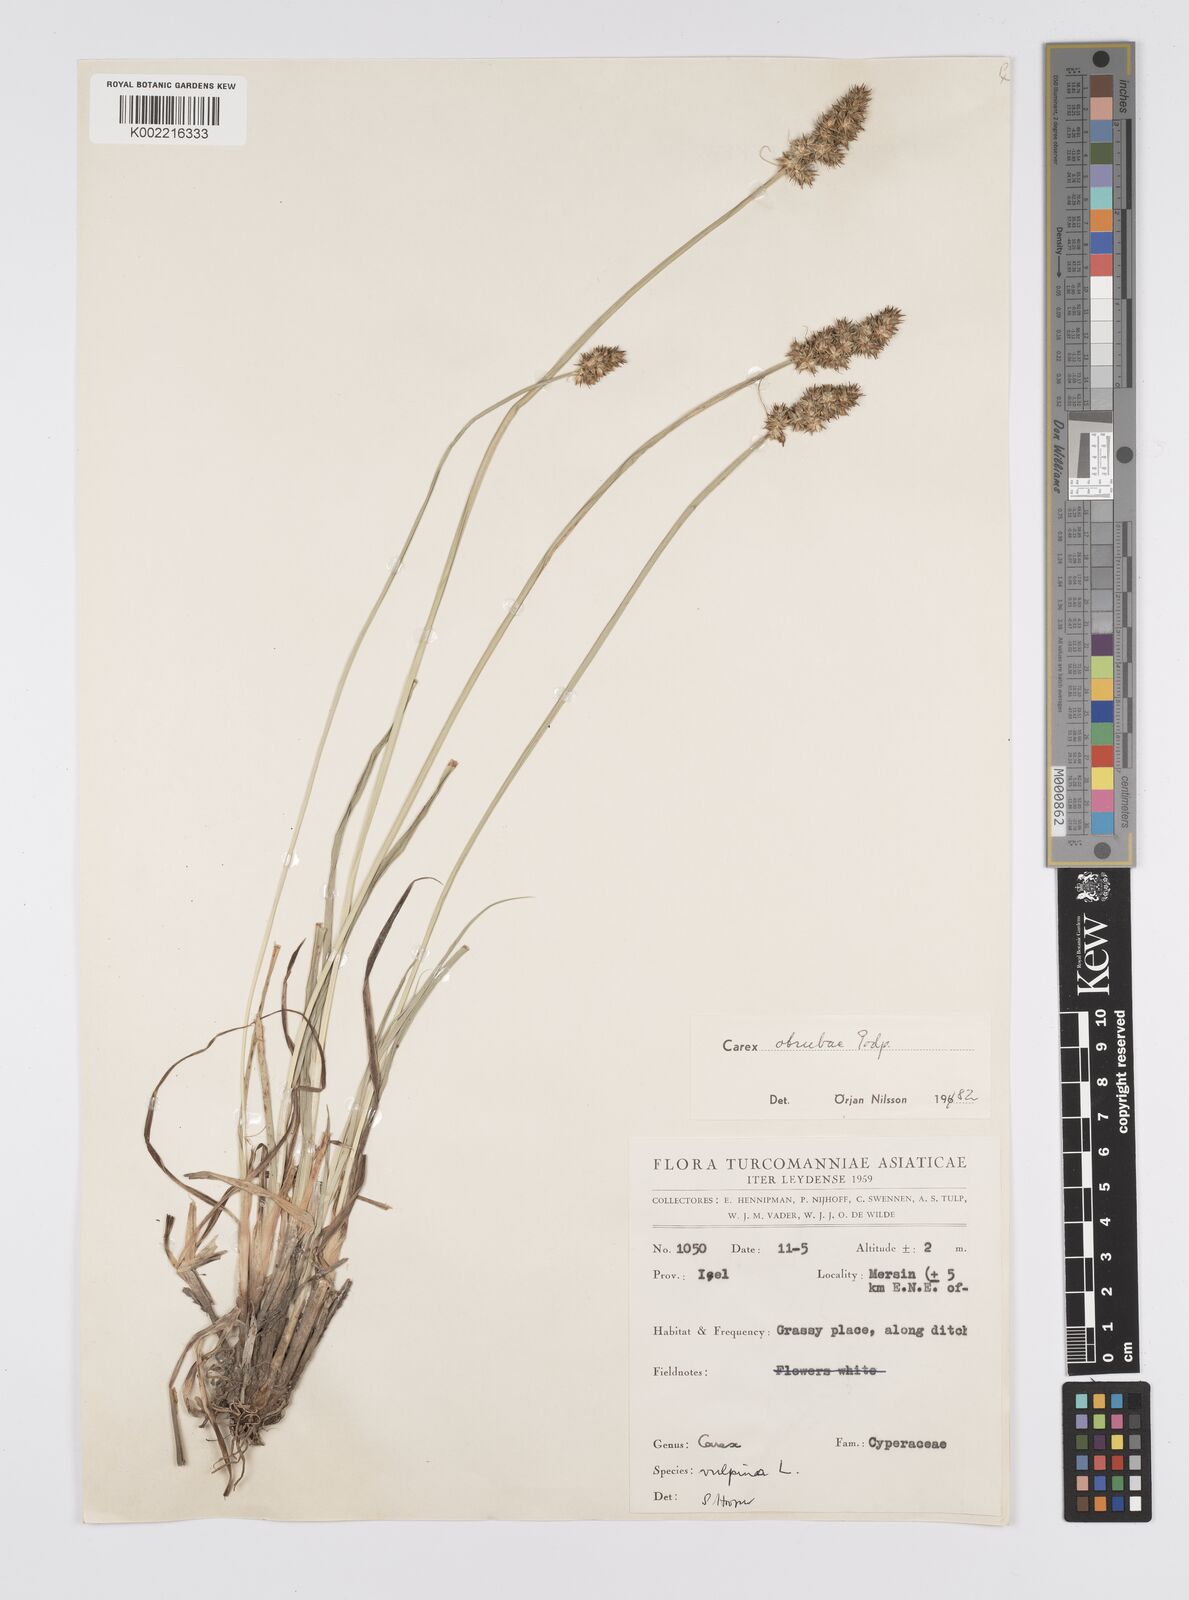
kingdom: Plantae
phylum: Tracheophyta
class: Liliopsida
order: Poales
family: Cyperaceae
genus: Carex
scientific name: Carex otrubae
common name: False fox-sedge
